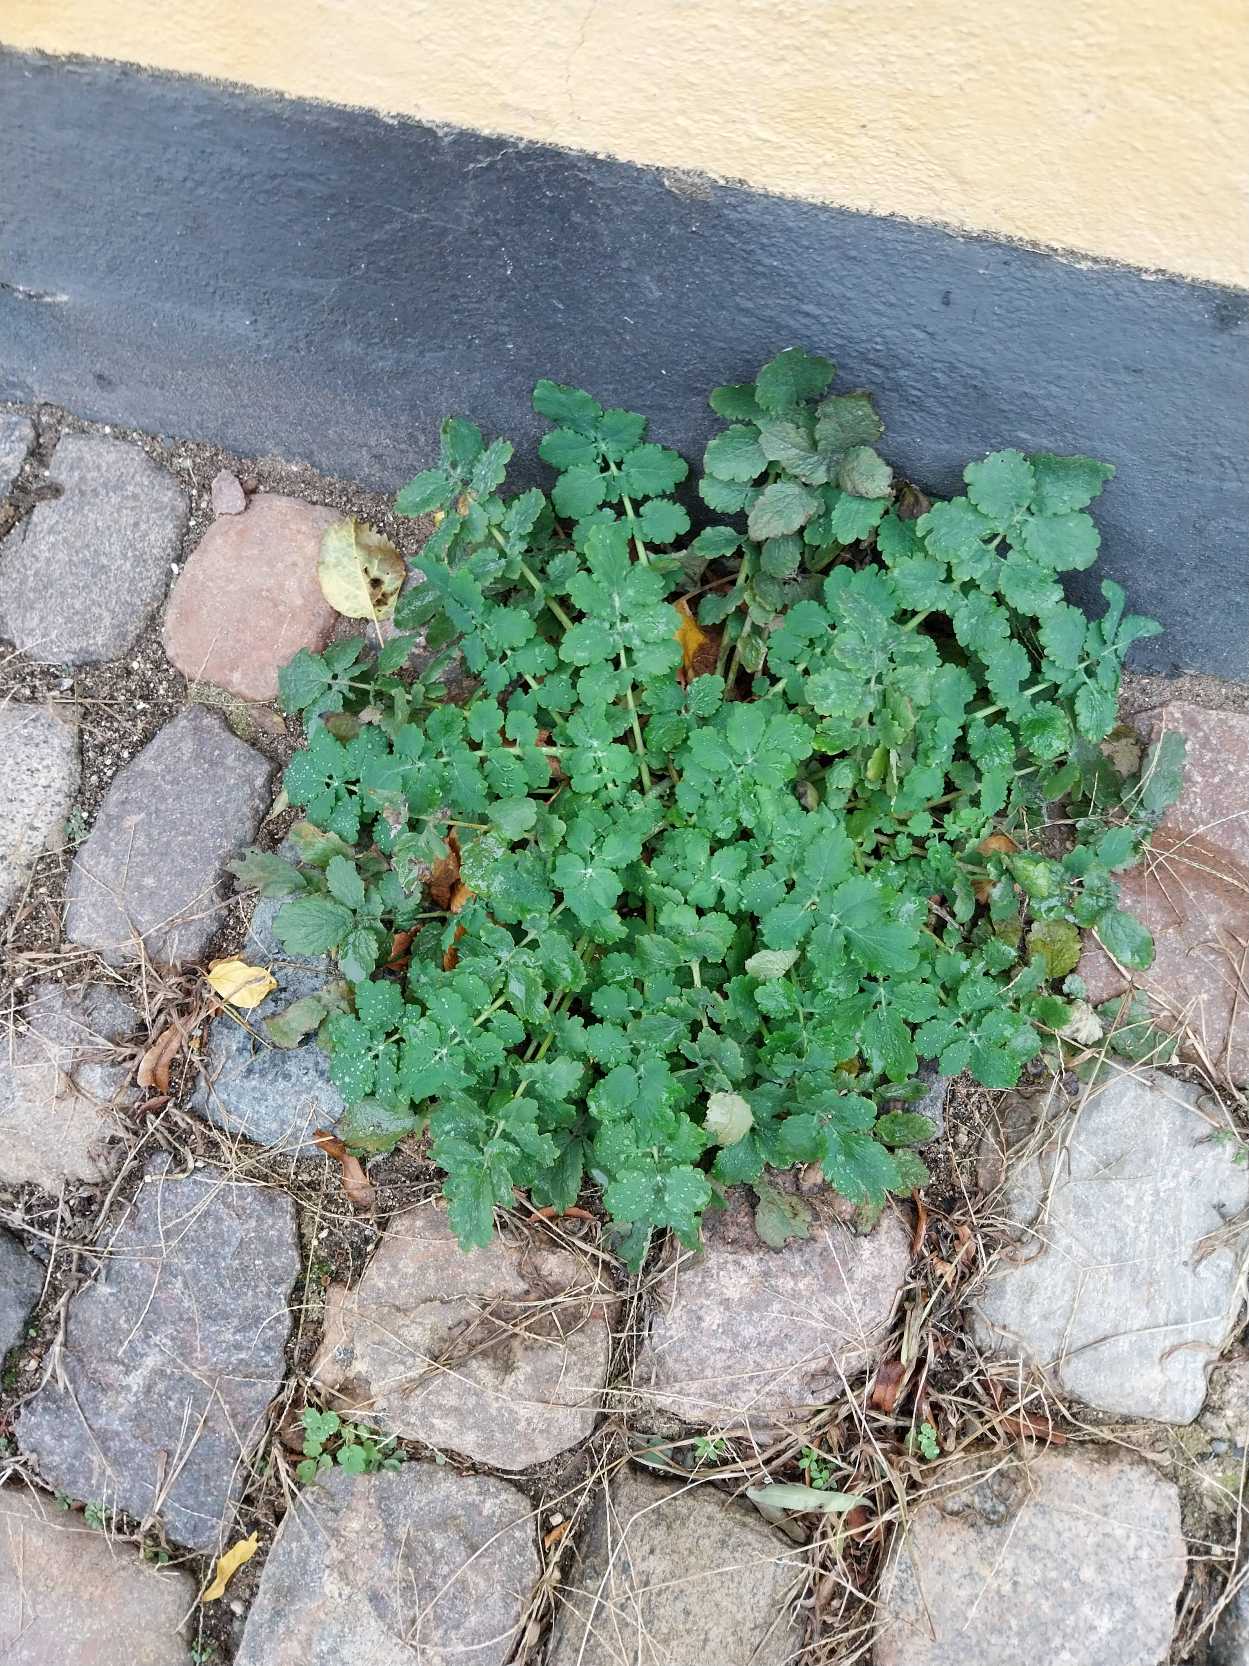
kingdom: Plantae
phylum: Tracheophyta
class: Magnoliopsida
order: Ranunculales
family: Papaveraceae
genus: Chelidonium
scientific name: Chelidonium majus
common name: Svaleurt
